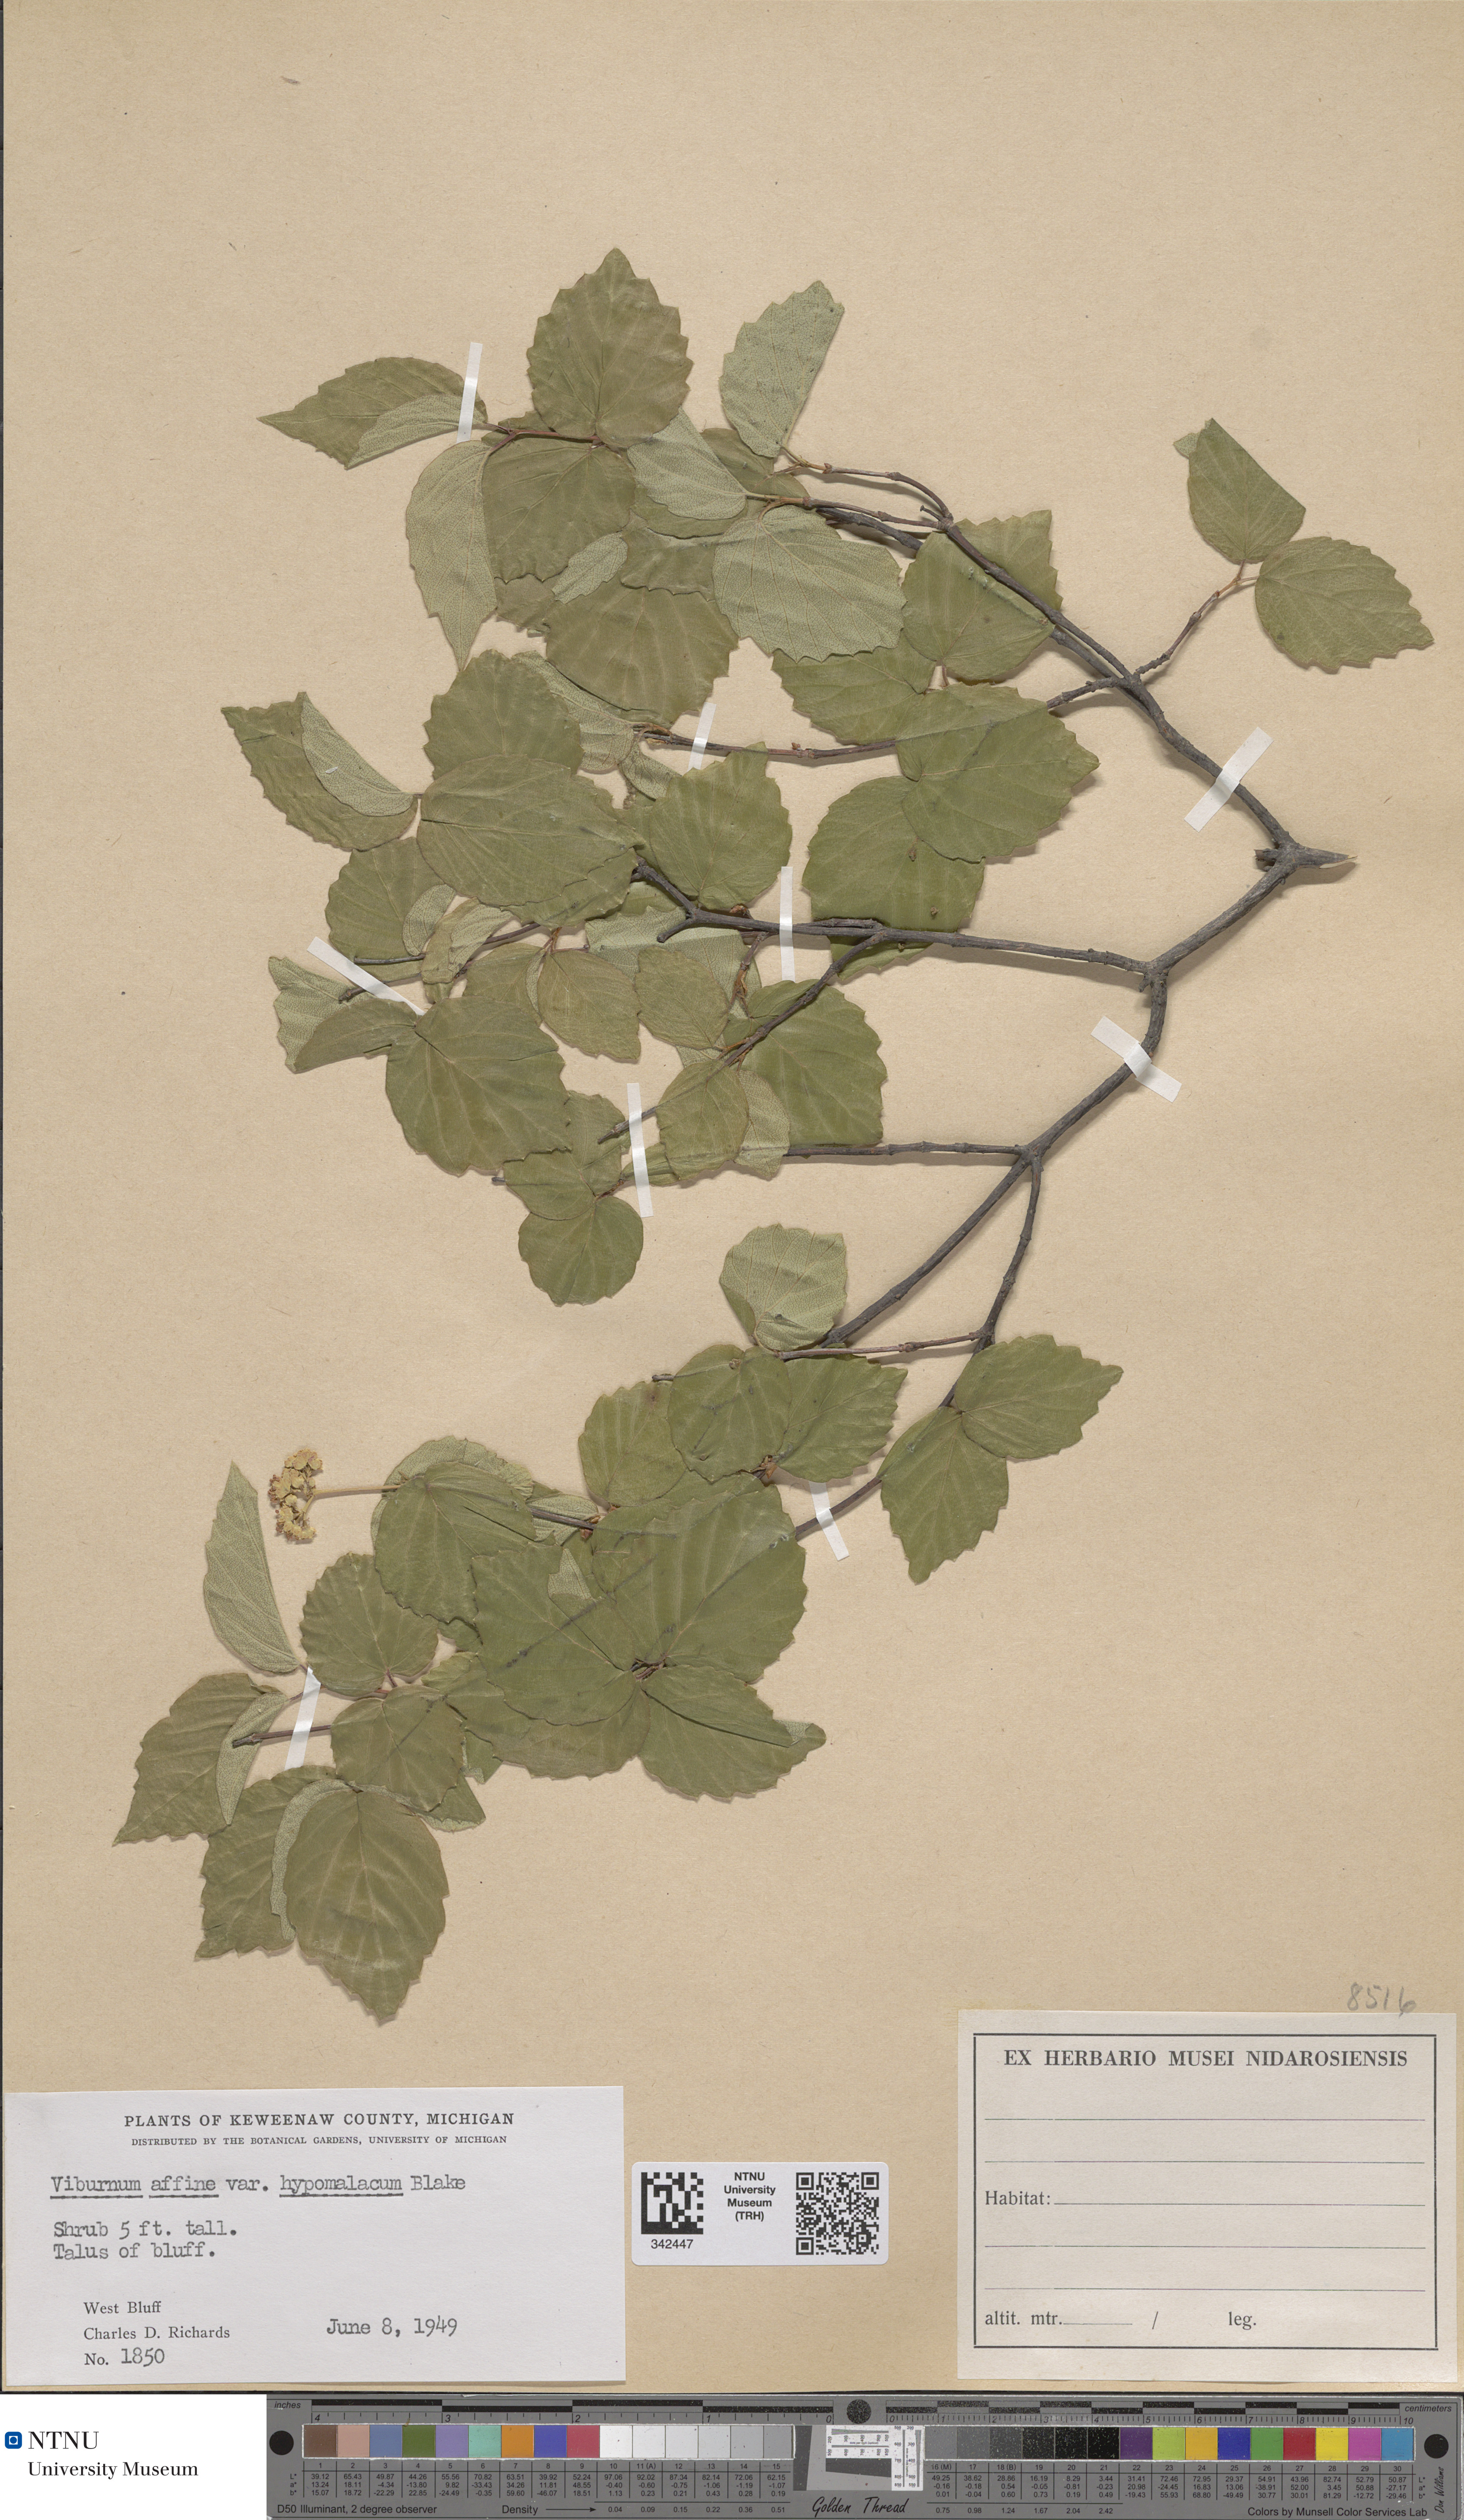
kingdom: Plantae
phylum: Tracheophyta
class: Magnoliopsida
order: Dipsacales
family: Viburnaceae
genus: Viburnum
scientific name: Viburnum rafinesquianum
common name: Downy arrow-wood
